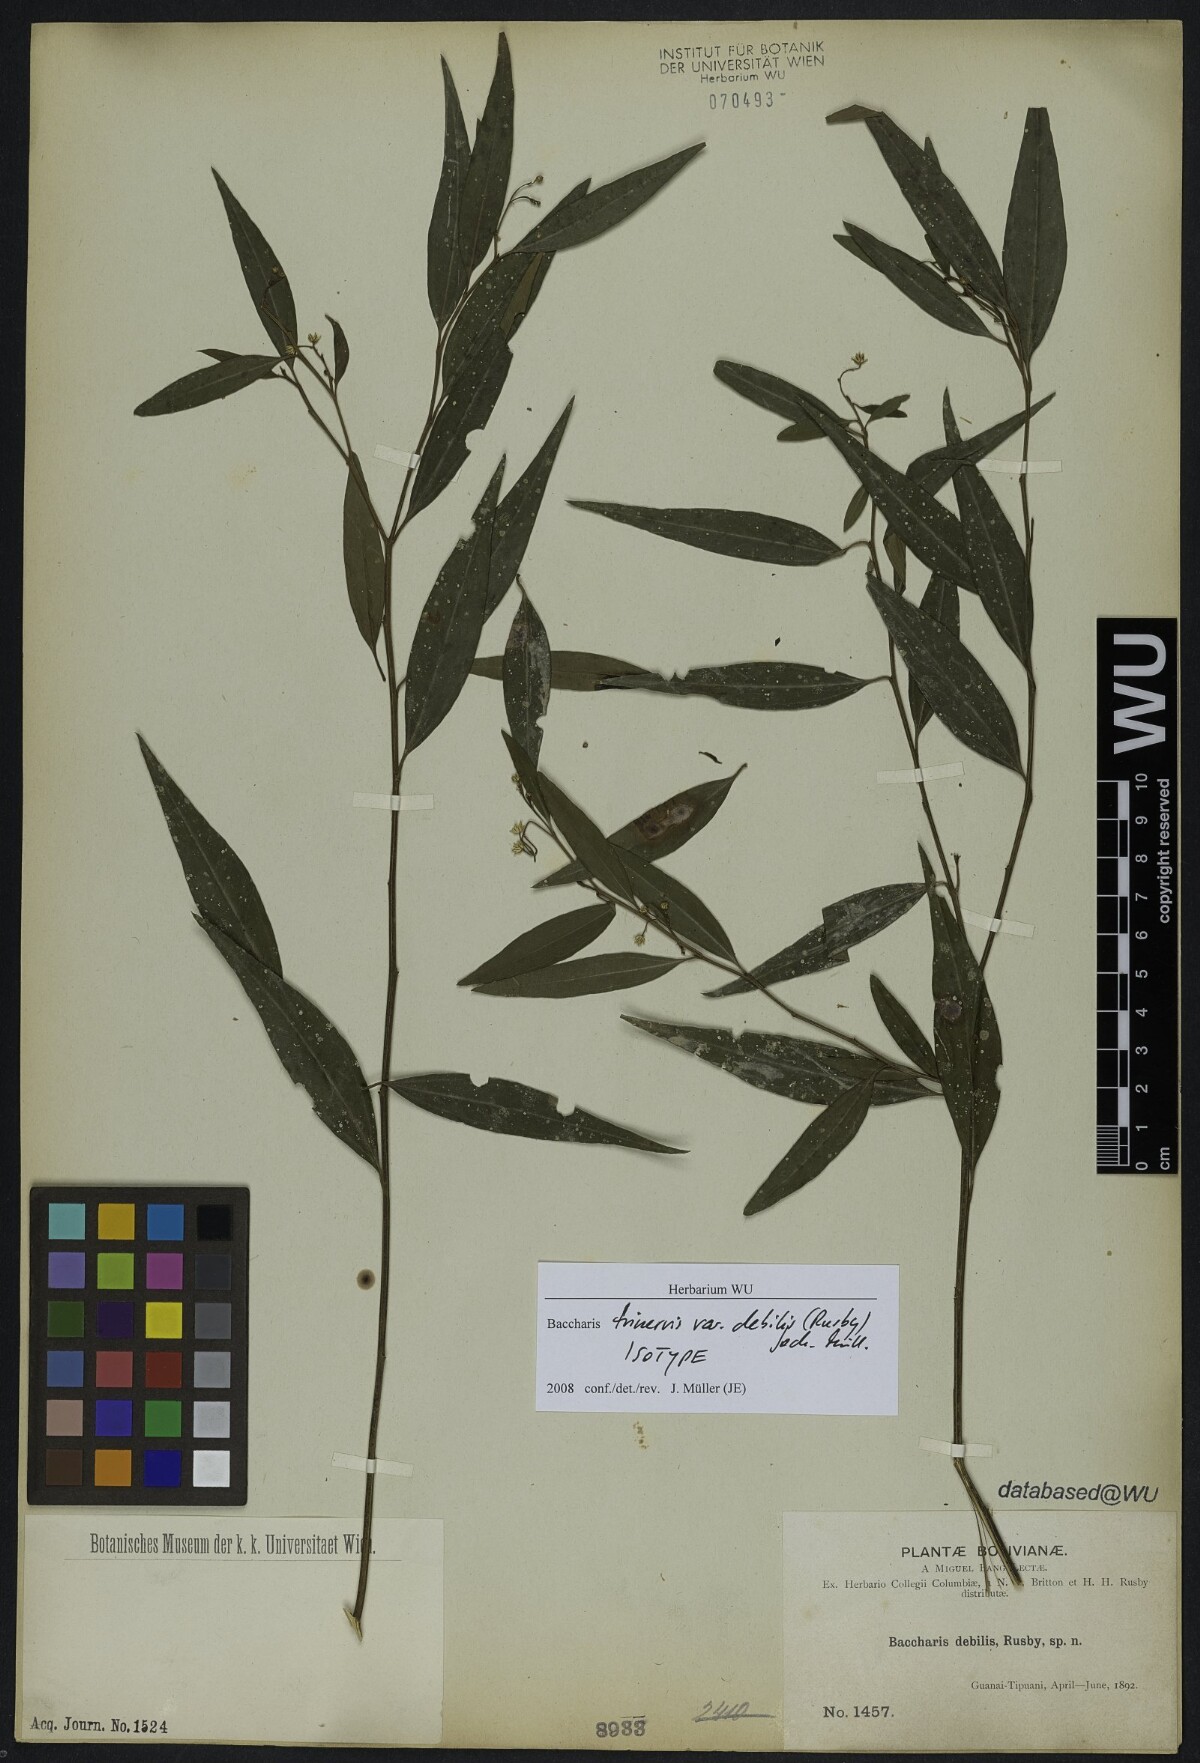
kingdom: Plantae
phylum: Tracheophyta
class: Magnoliopsida
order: Asterales
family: Asteraceae
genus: Baccharis
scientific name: Baccharis trinervis
